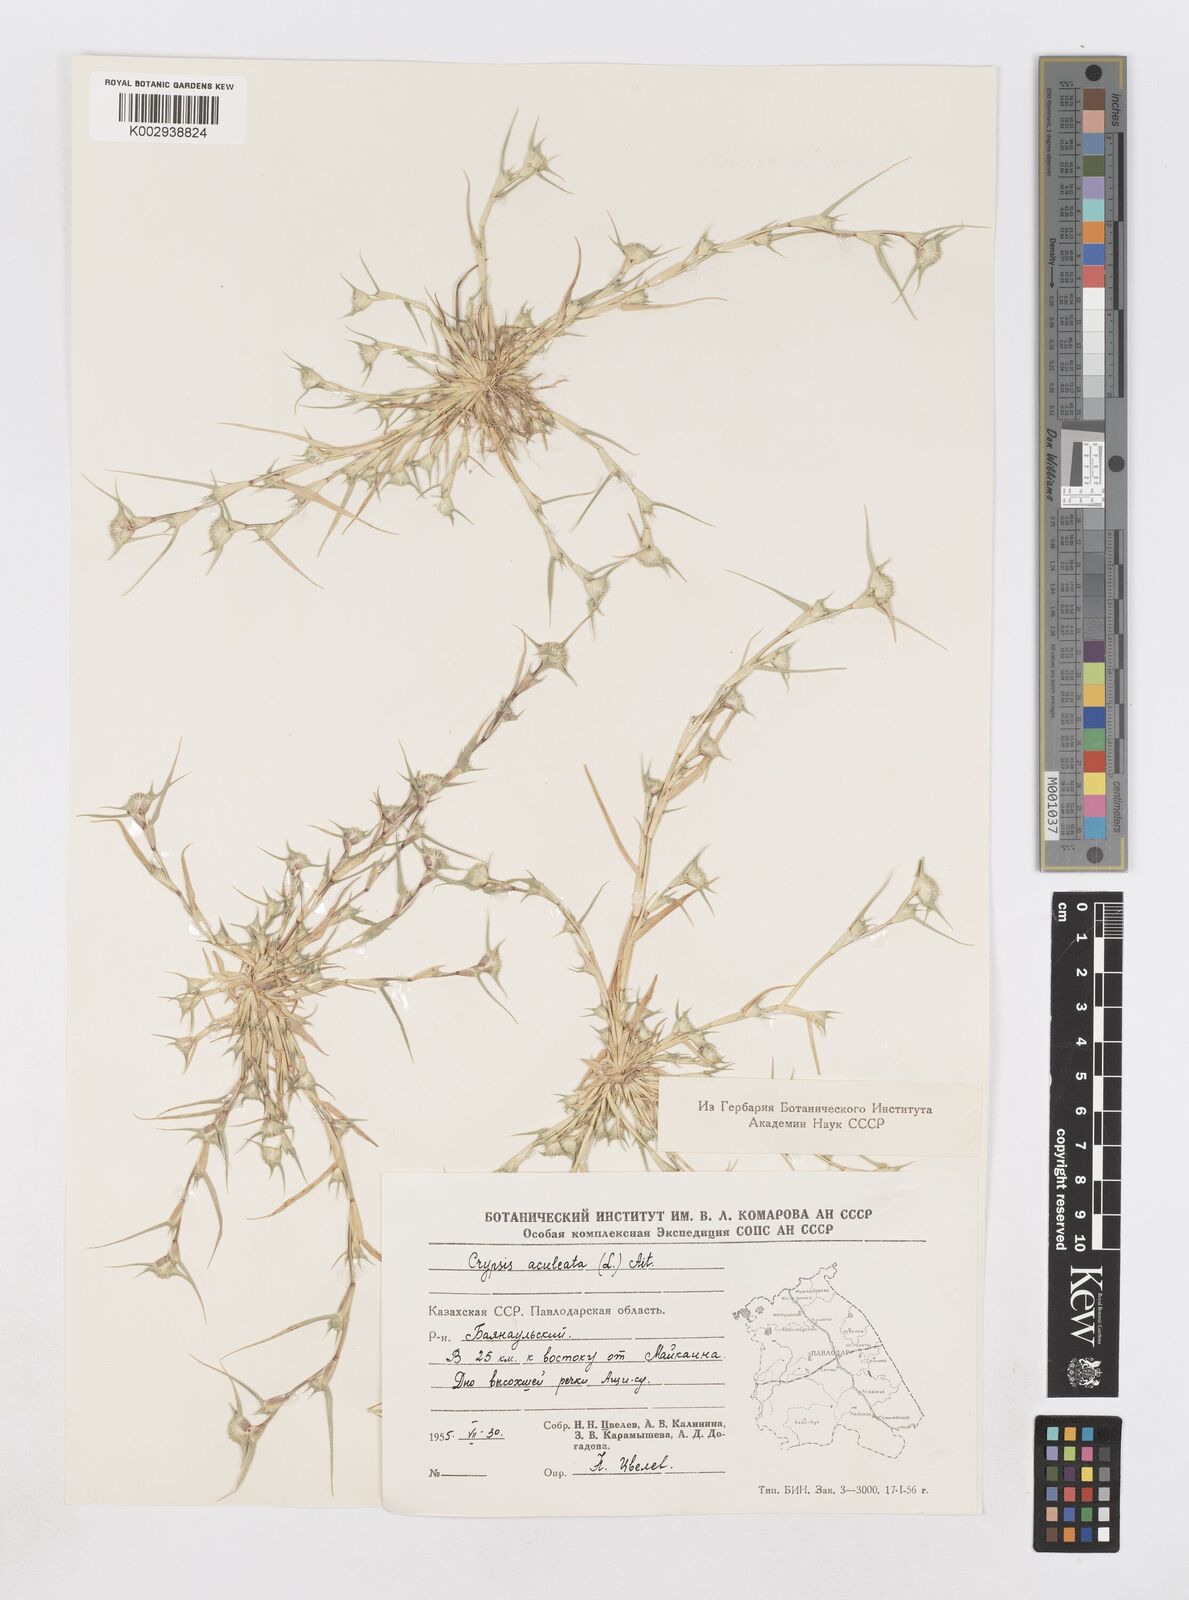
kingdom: Plantae
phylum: Tracheophyta
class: Liliopsida
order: Poales
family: Poaceae
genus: Sporobolus
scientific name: Sporobolus aculeatus
